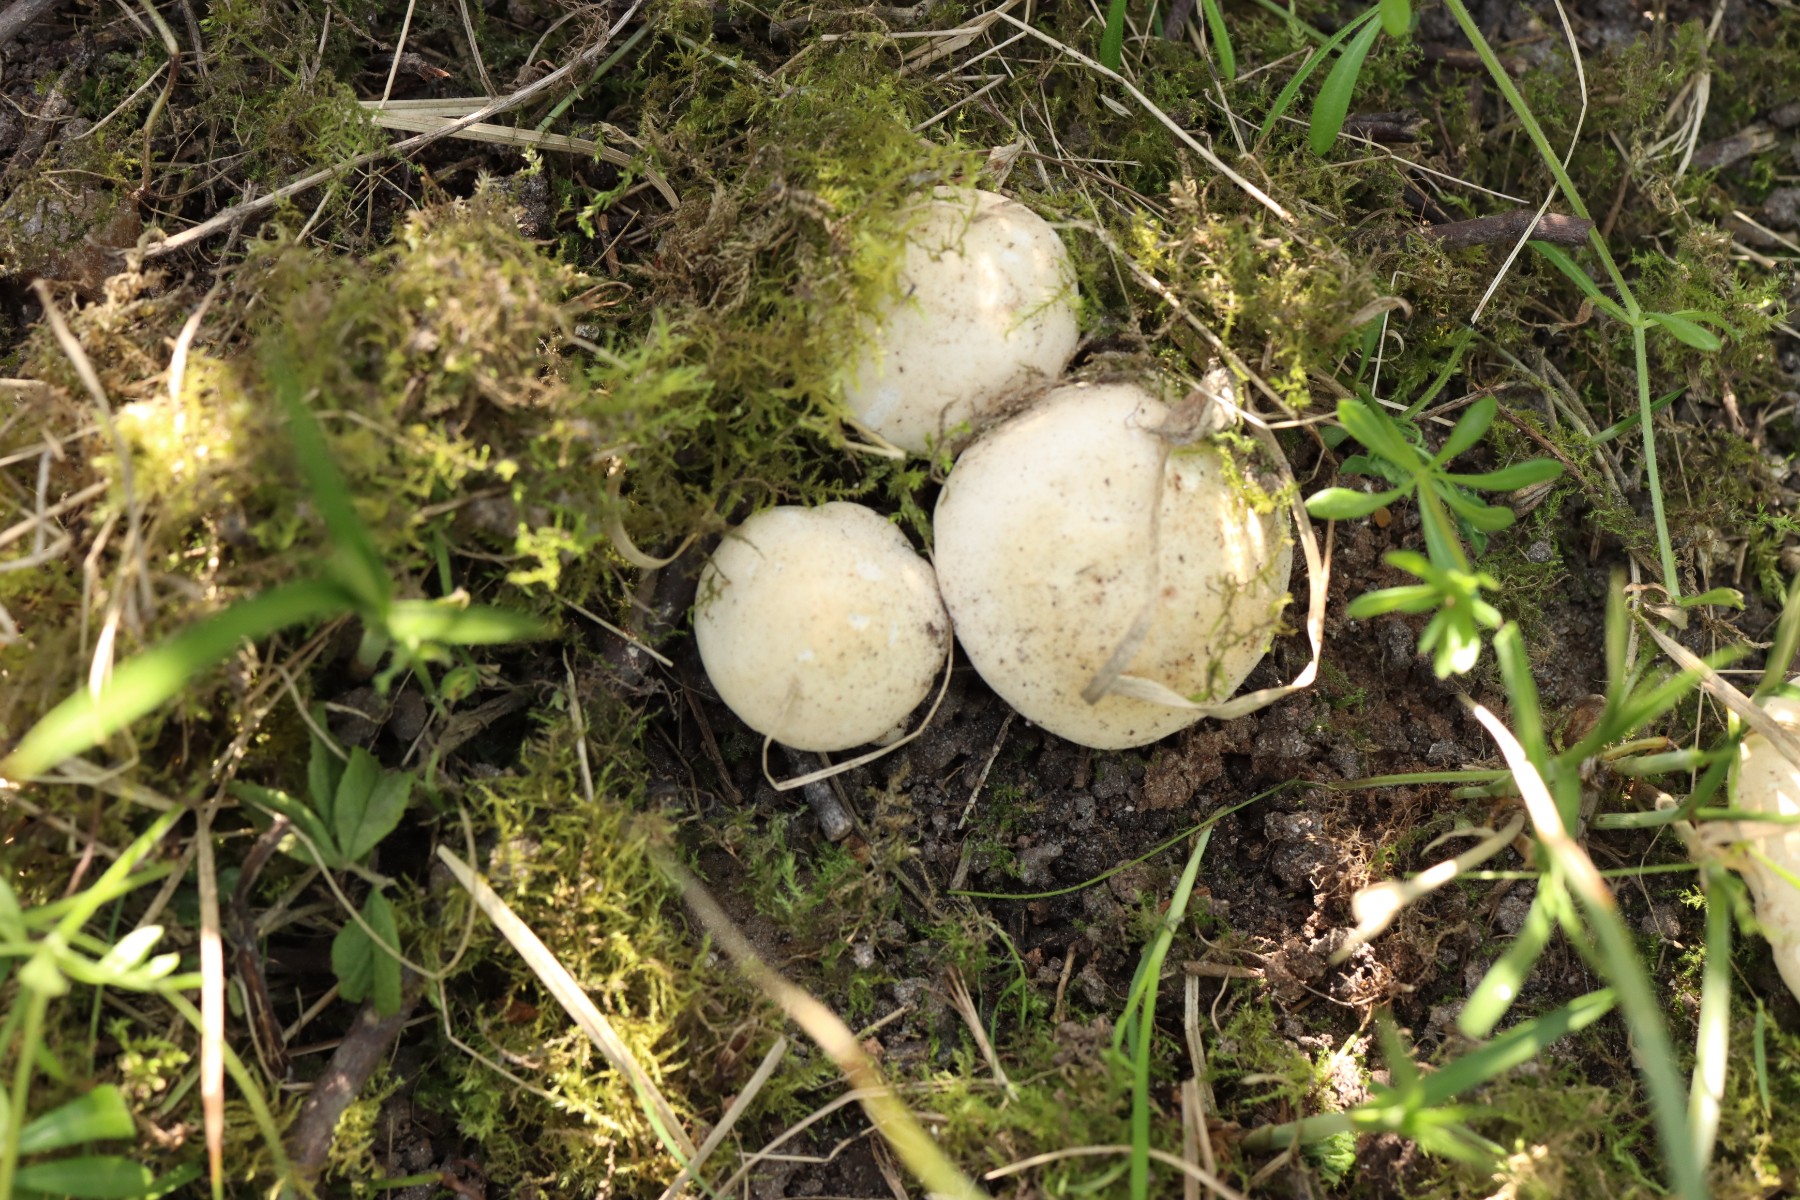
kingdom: Fungi
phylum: Basidiomycota
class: Agaricomycetes
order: Agaricales
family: Lyophyllaceae
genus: Calocybe
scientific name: Calocybe gambosa
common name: vårmusseron
